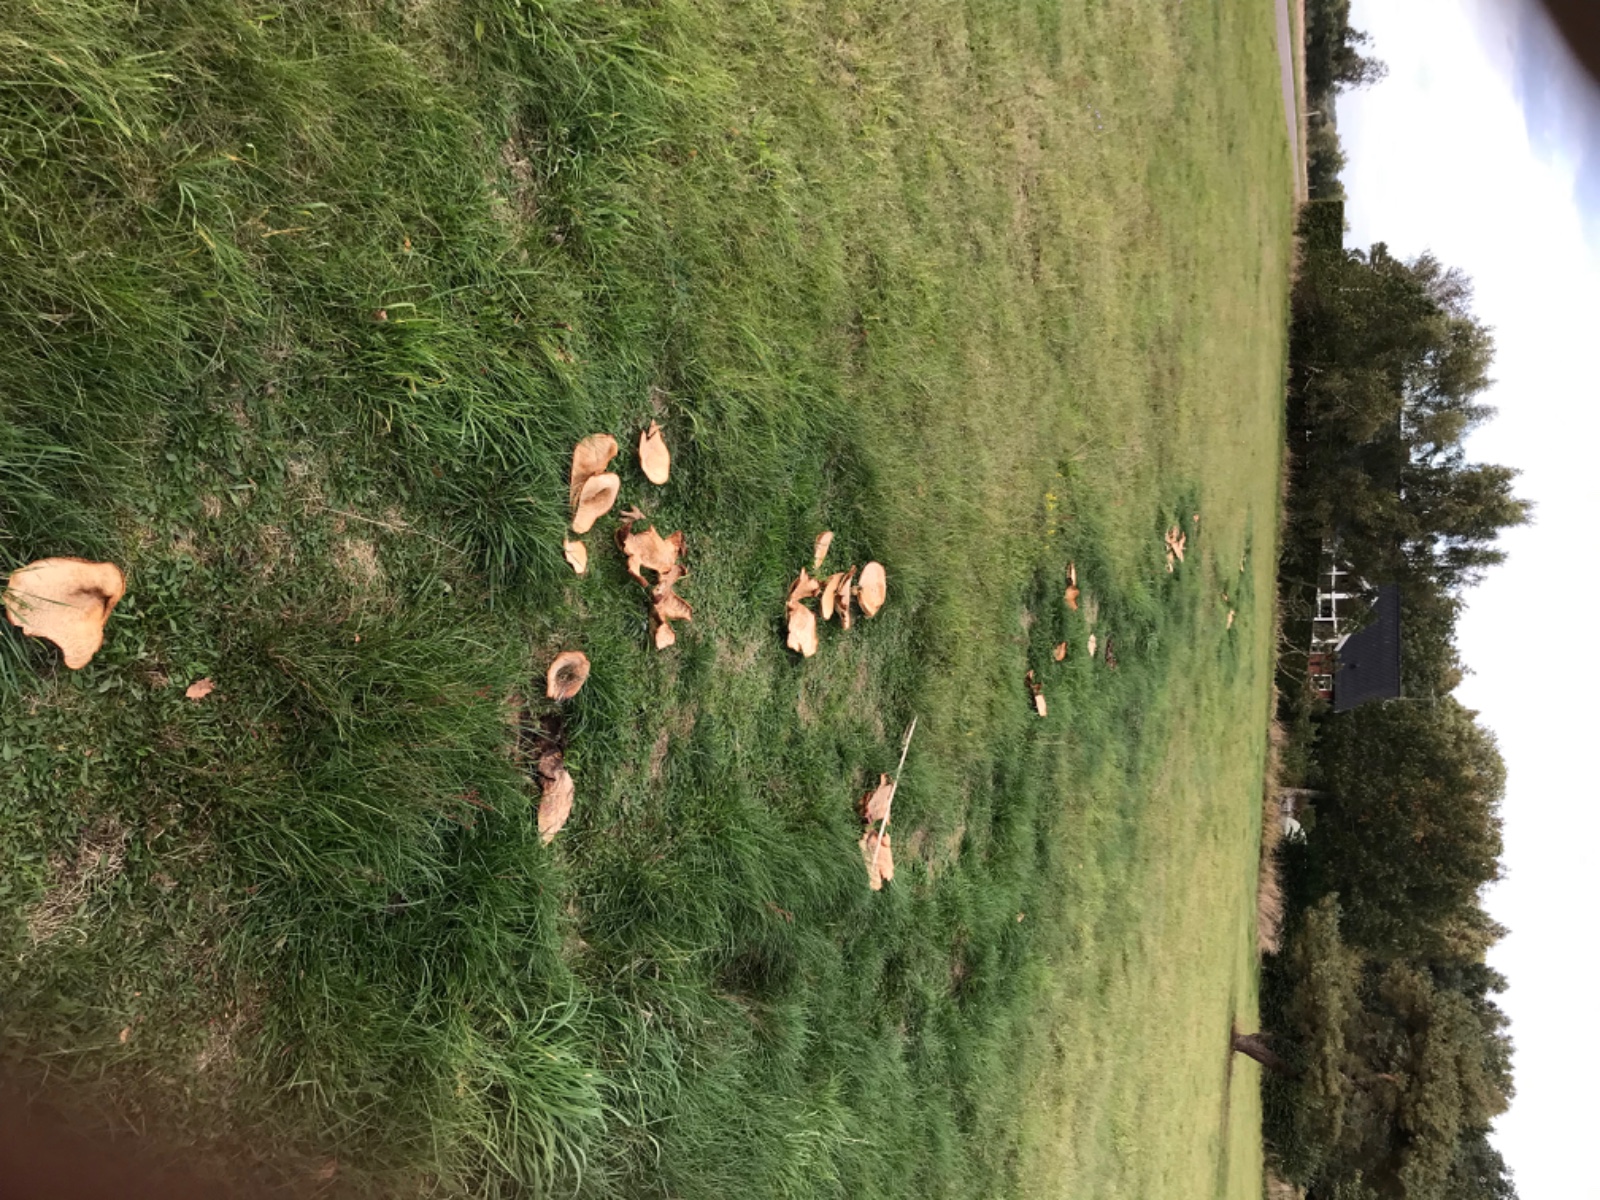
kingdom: Fungi
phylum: Basidiomycota
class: Agaricomycetes
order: Agaricales
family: Tricholomataceae
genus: Aspropaxillus
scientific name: Aspropaxillus giganteus
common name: kæmpe-tragtridderhat
